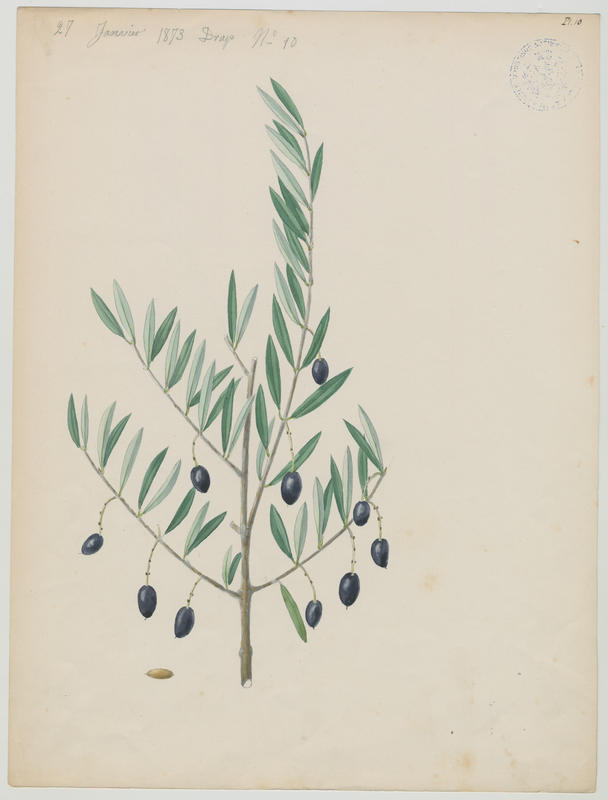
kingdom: Plantae
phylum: Tracheophyta
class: Magnoliopsida
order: Lamiales
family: Oleaceae
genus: Olea
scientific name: Olea europaea
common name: Olive
